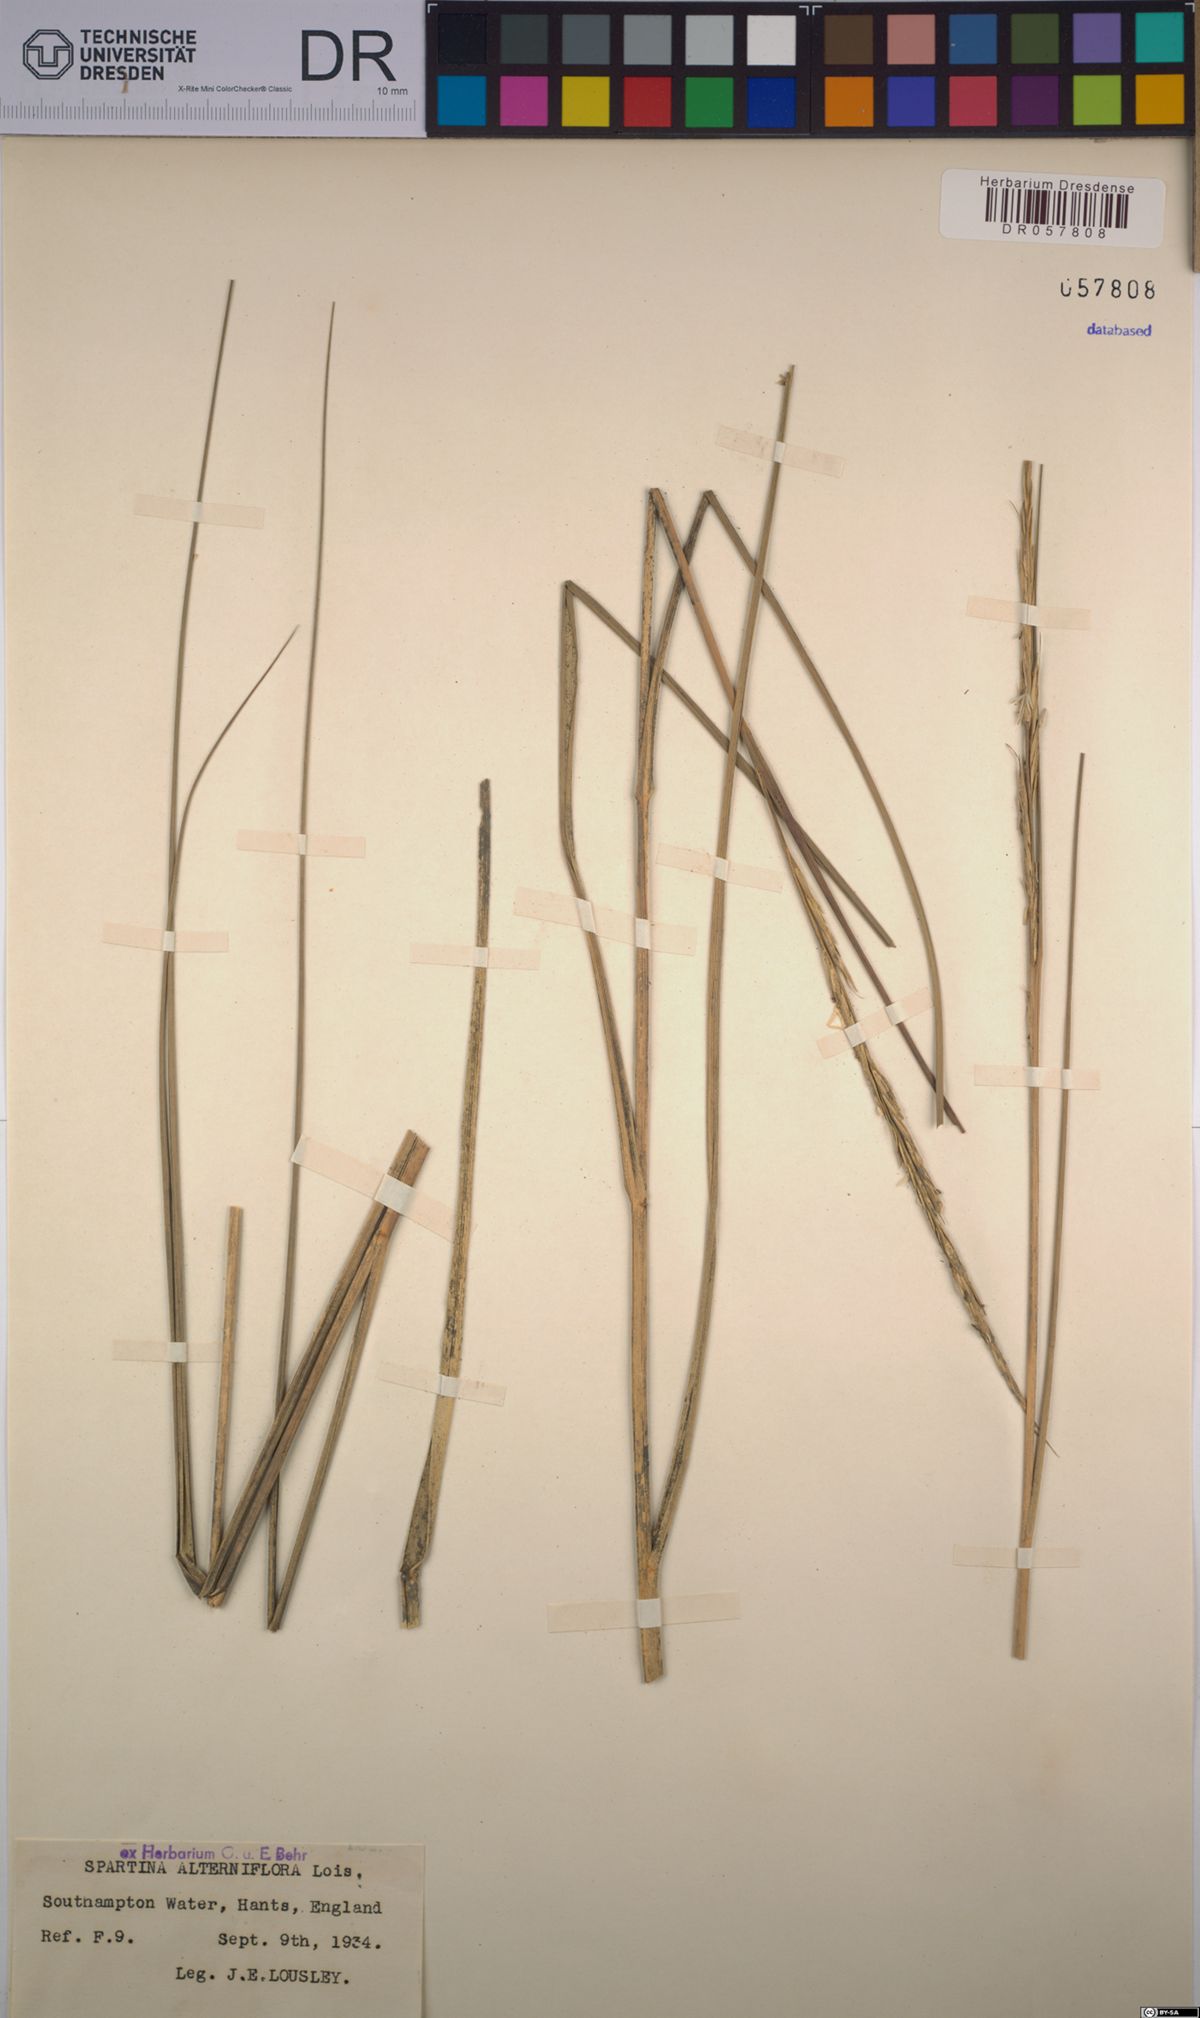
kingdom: Plantae
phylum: Tracheophyta
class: Liliopsida
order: Poales
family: Poaceae
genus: Sporobolus
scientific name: Sporobolus alterniflorus
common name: Atlantic cordgrass
